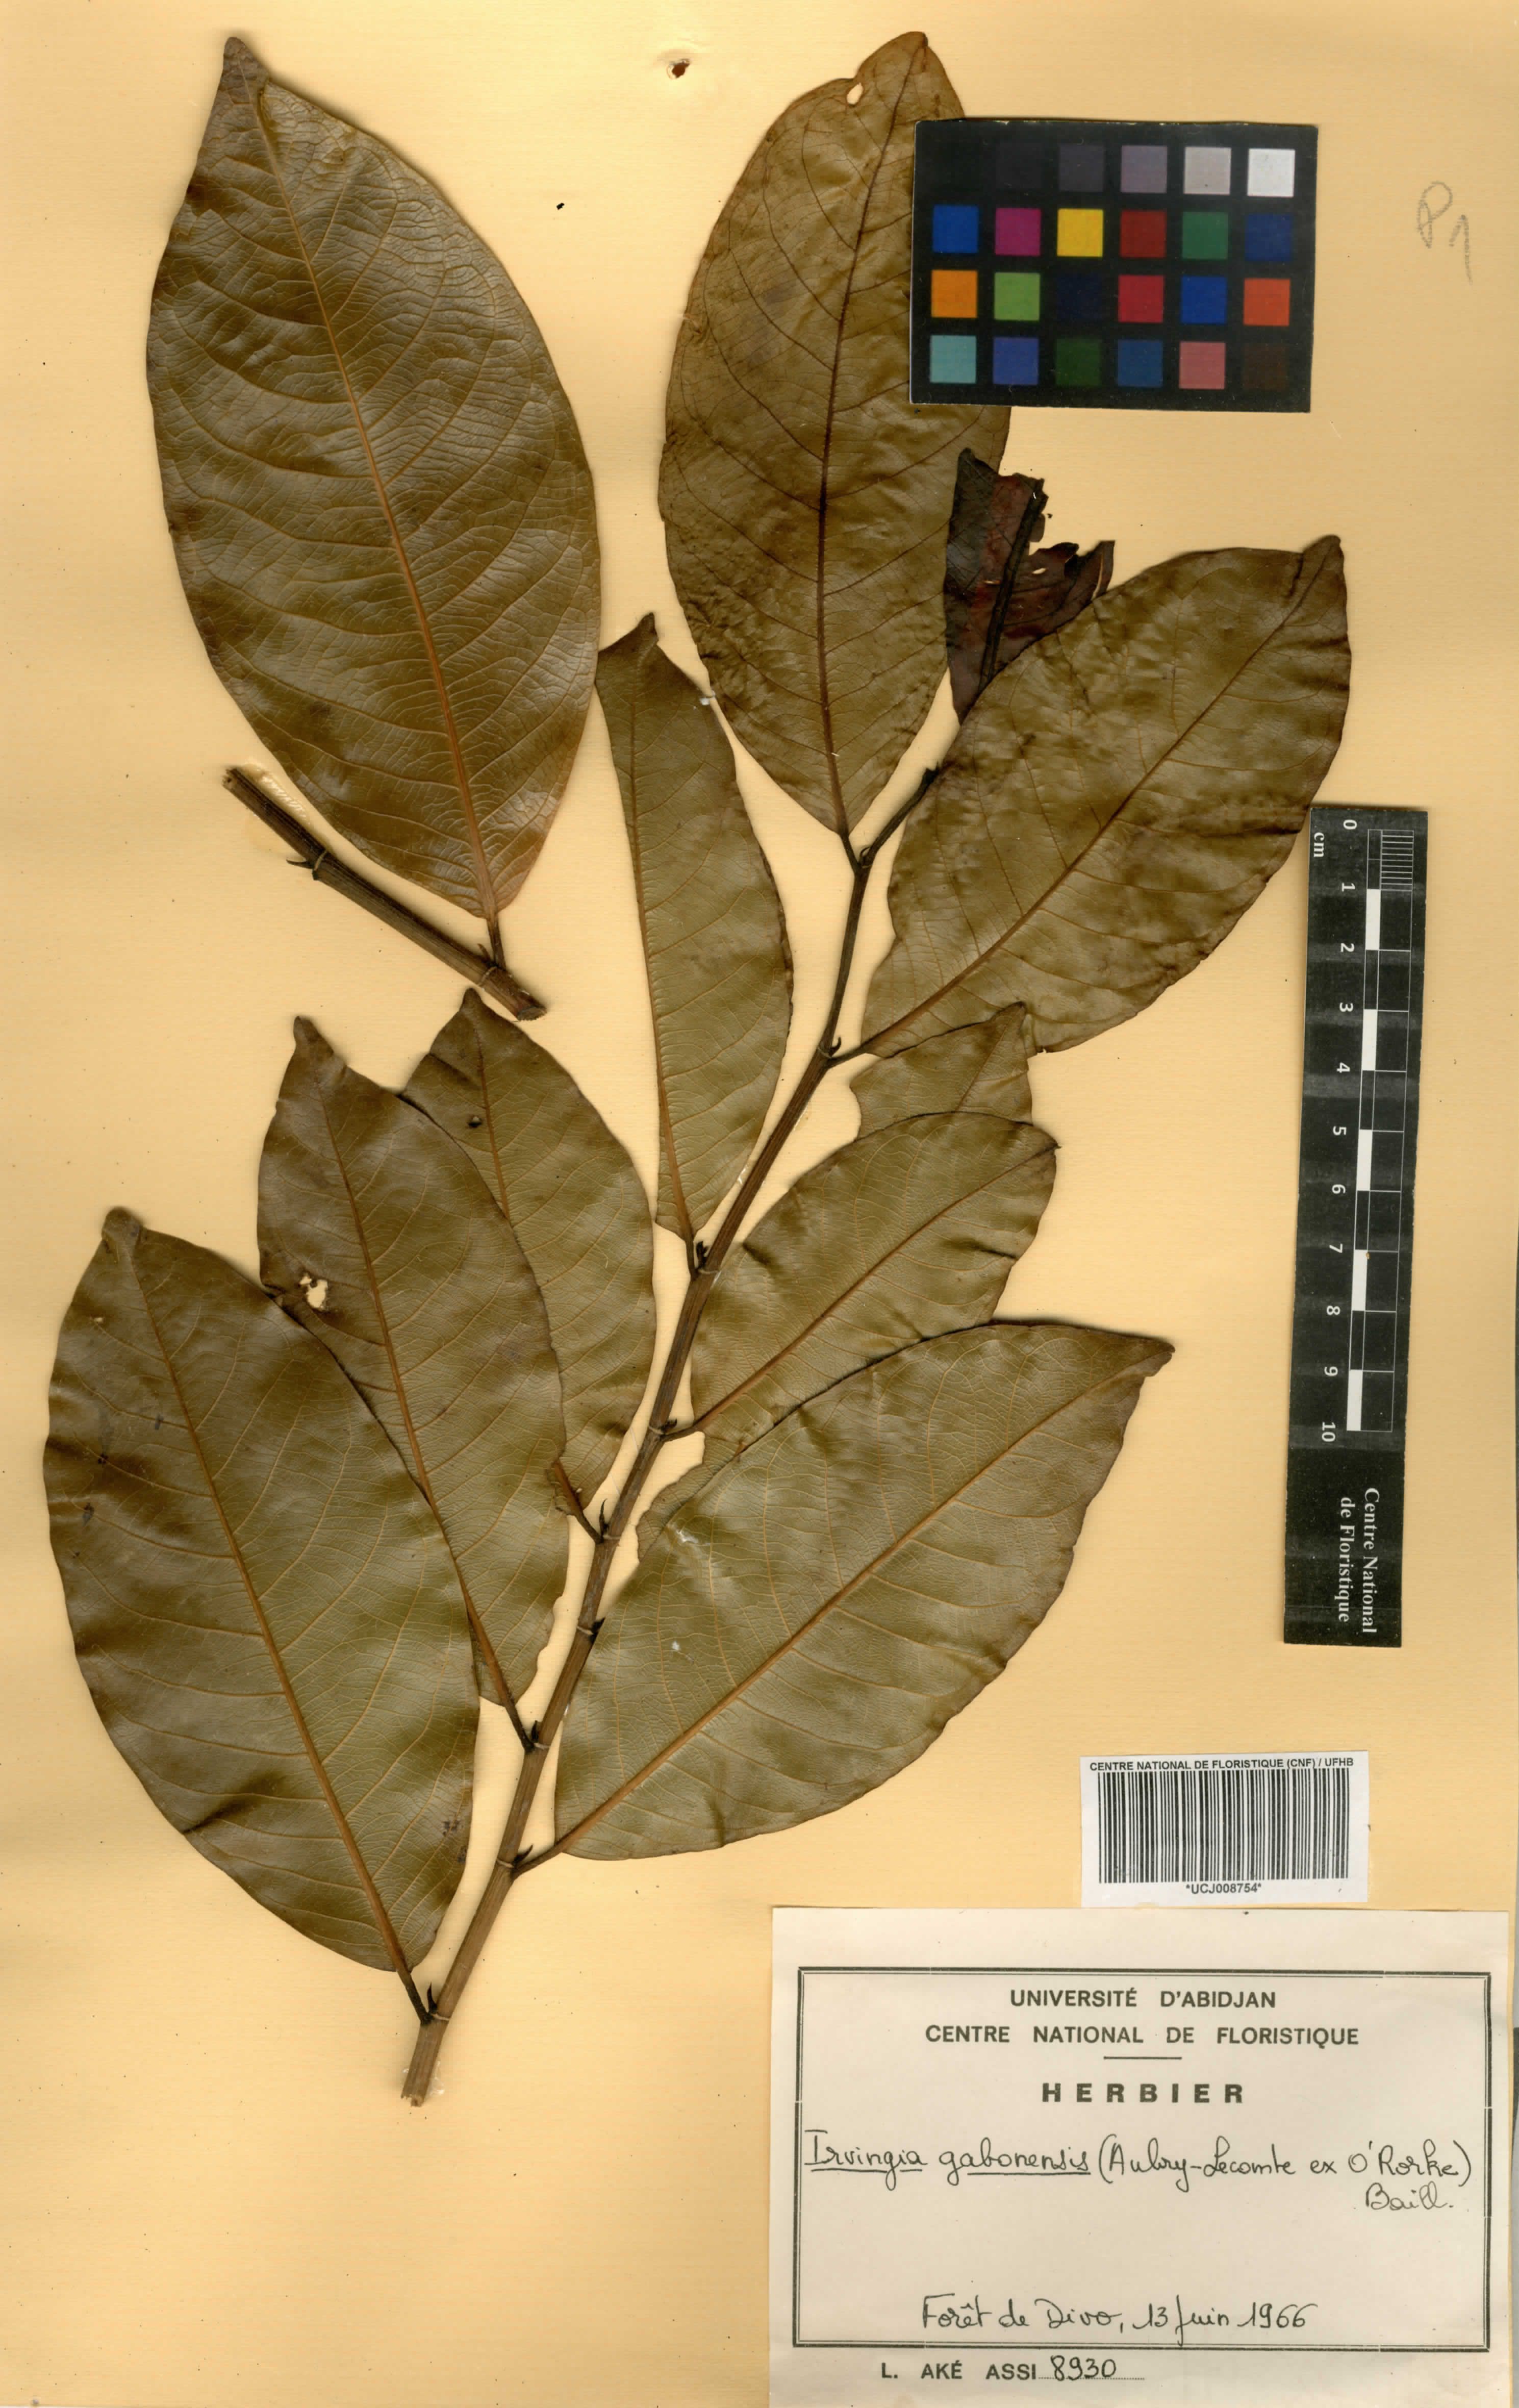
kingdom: Plantae
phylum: Tracheophyta
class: Magnoliopsida
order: Malpighiales
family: Irvingiaceae
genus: Irvingia
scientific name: Irvingia gabonensis
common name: Rainy season bush-mango
